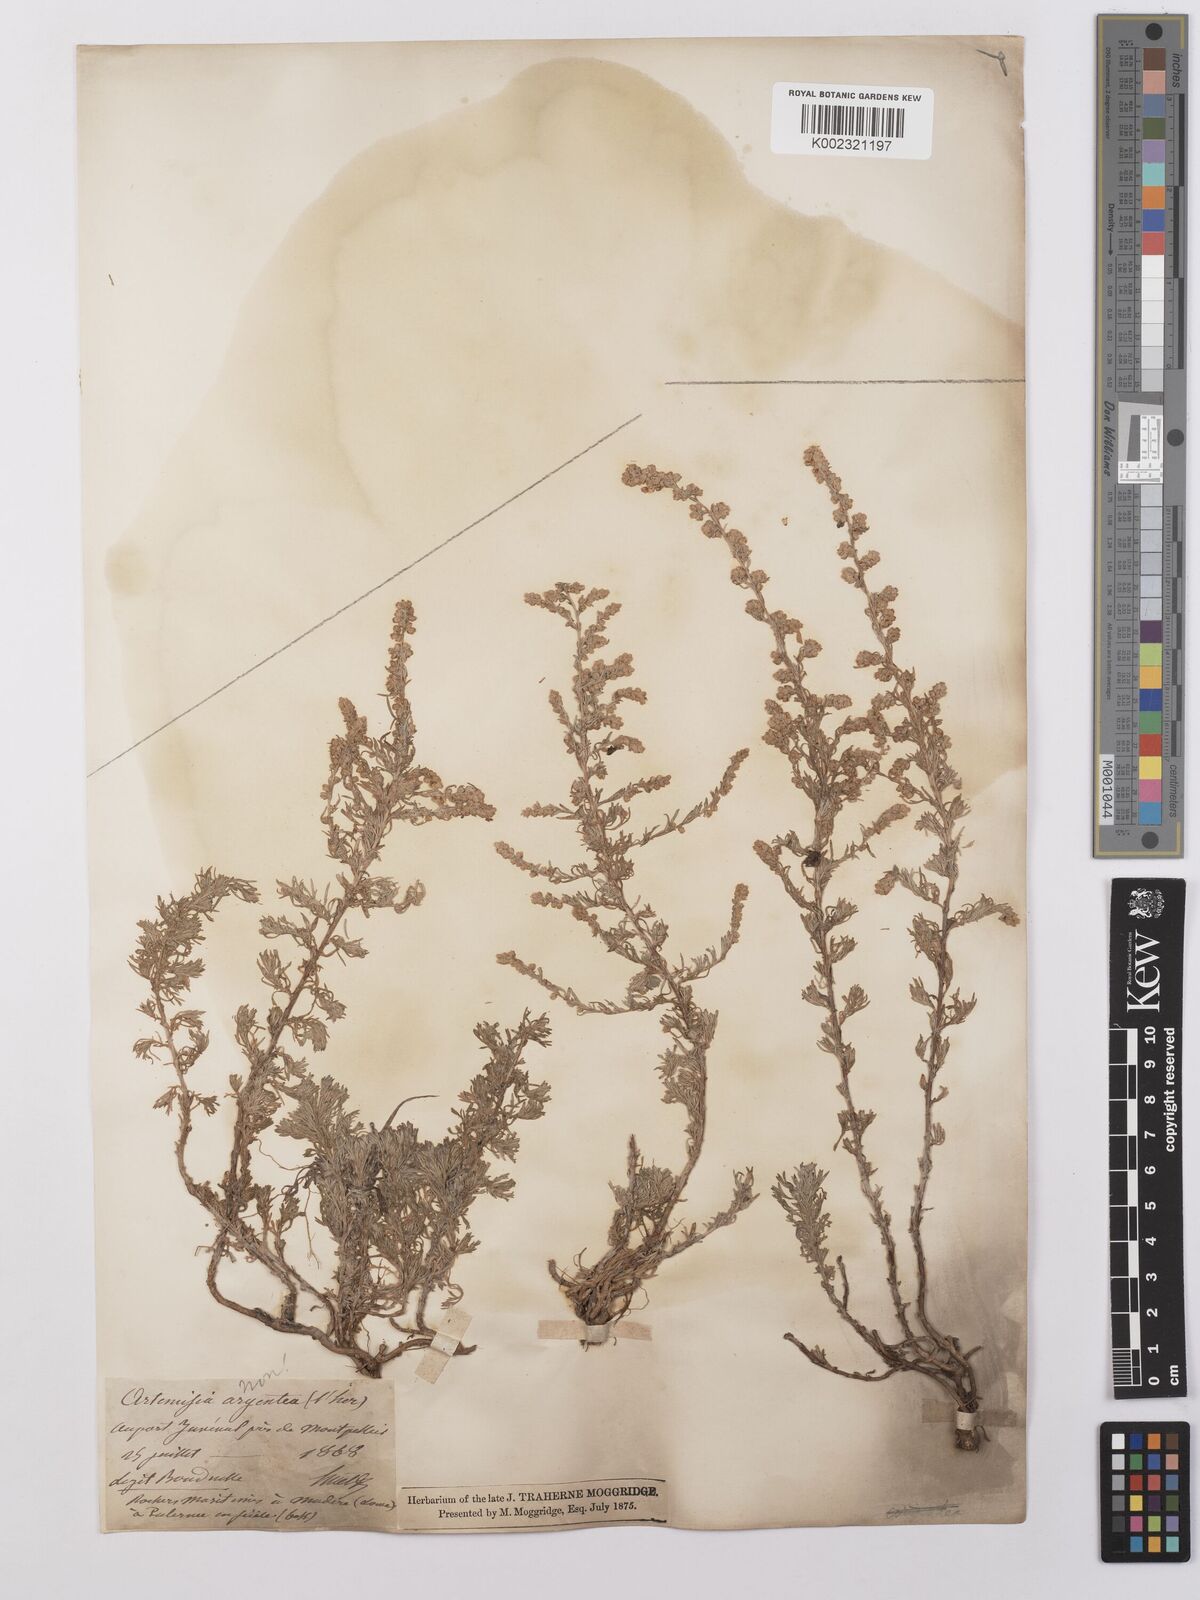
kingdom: Plantae
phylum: Tracheophyta
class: Magnoliopsida
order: Asterales
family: Asteraceae
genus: Artemisia
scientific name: Artemisia maritima
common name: Wormseed
